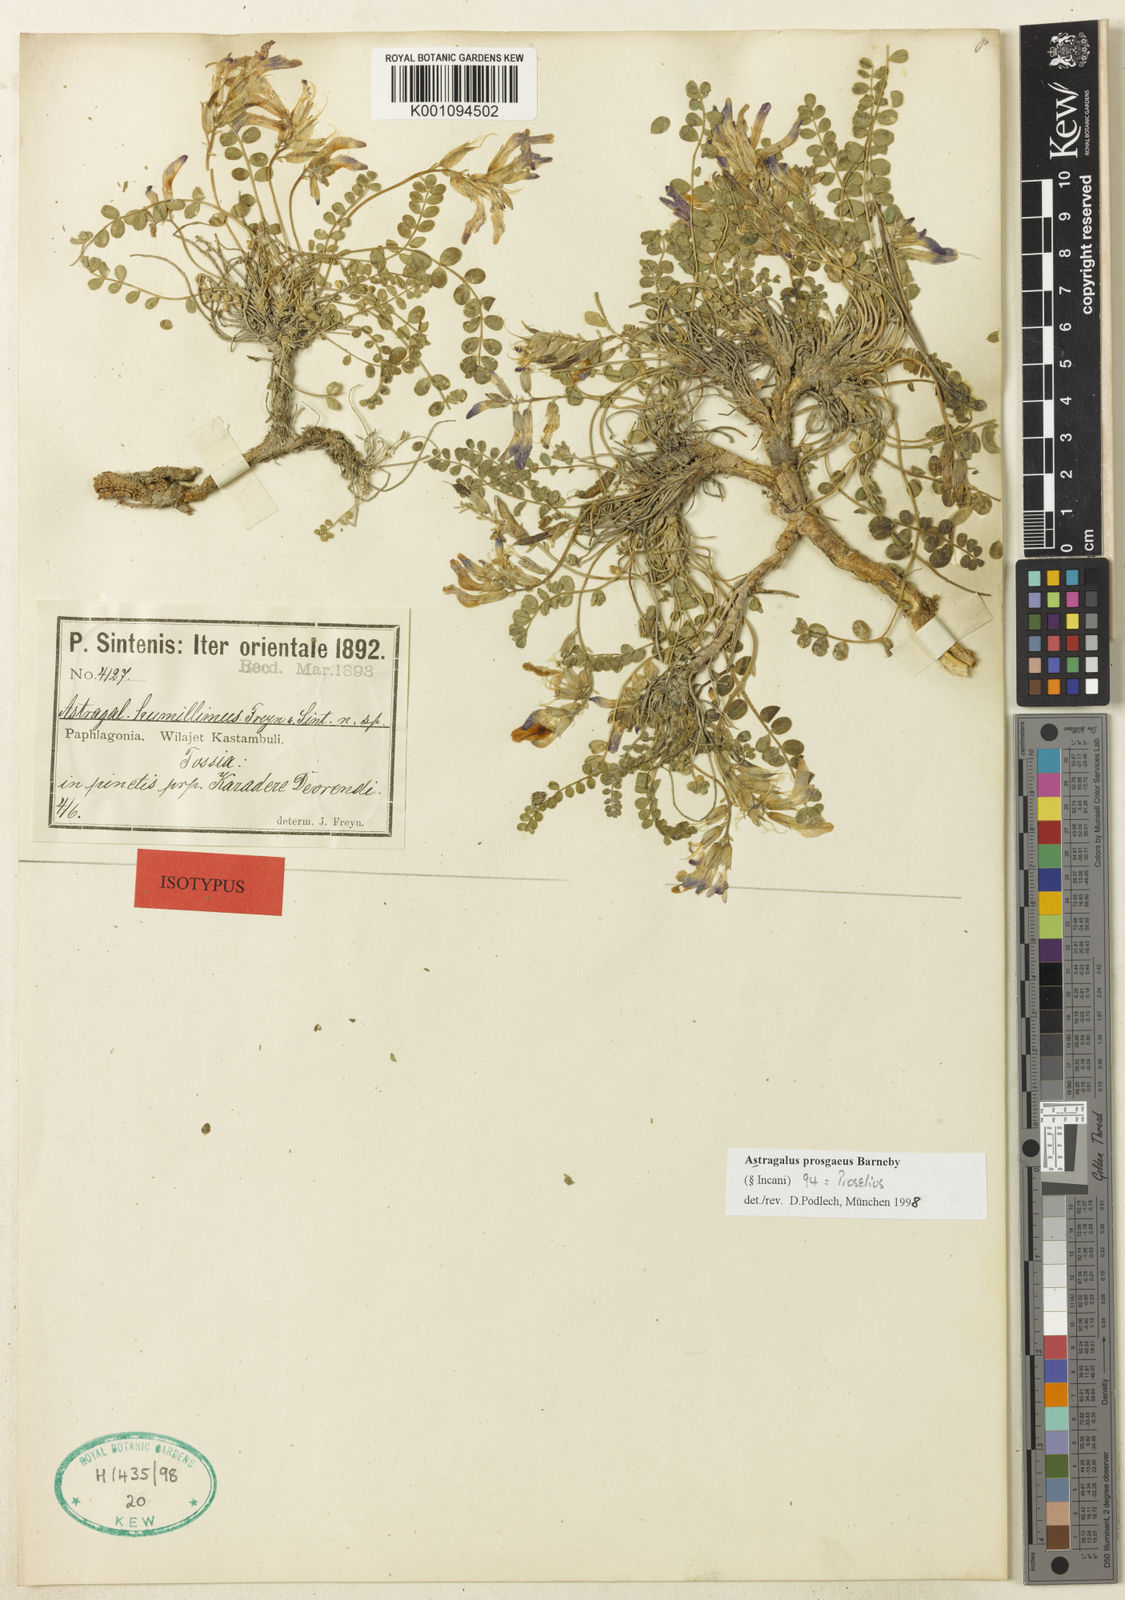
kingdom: Plantae
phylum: Tracheophyta
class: Magnoliopsida
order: Fabales
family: Fabaceae
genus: Astragalus
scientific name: Astragalus
